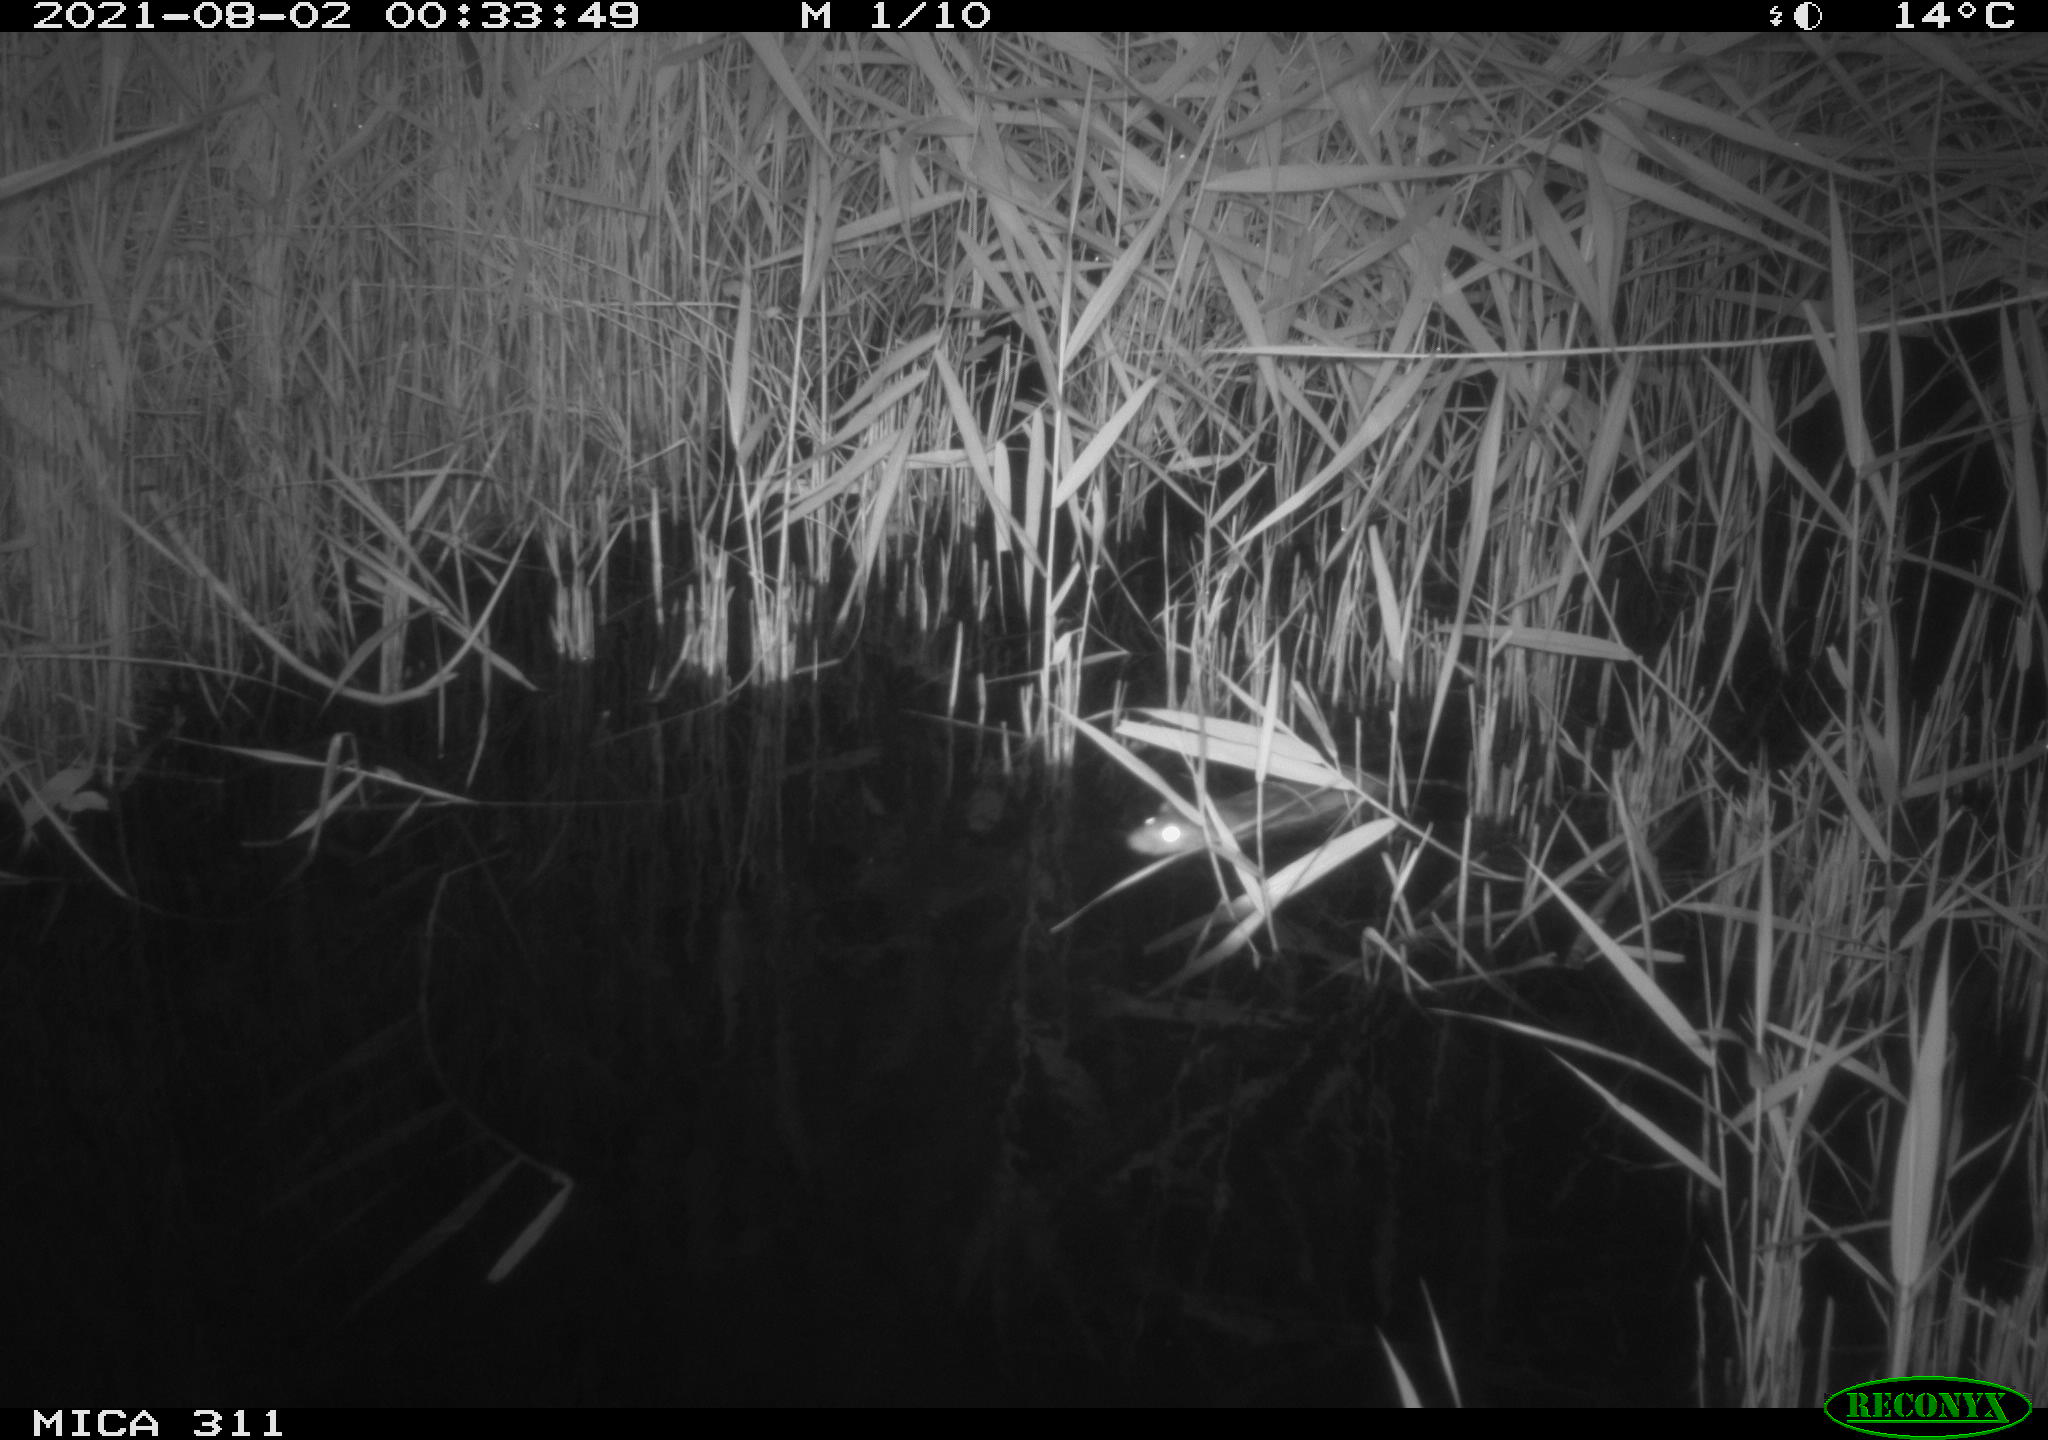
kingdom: Animalia
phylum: Chordata
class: Mammalia
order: Rodentia
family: Muridae
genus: Rattus
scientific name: Rattus norvegicus
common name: Brown rat
